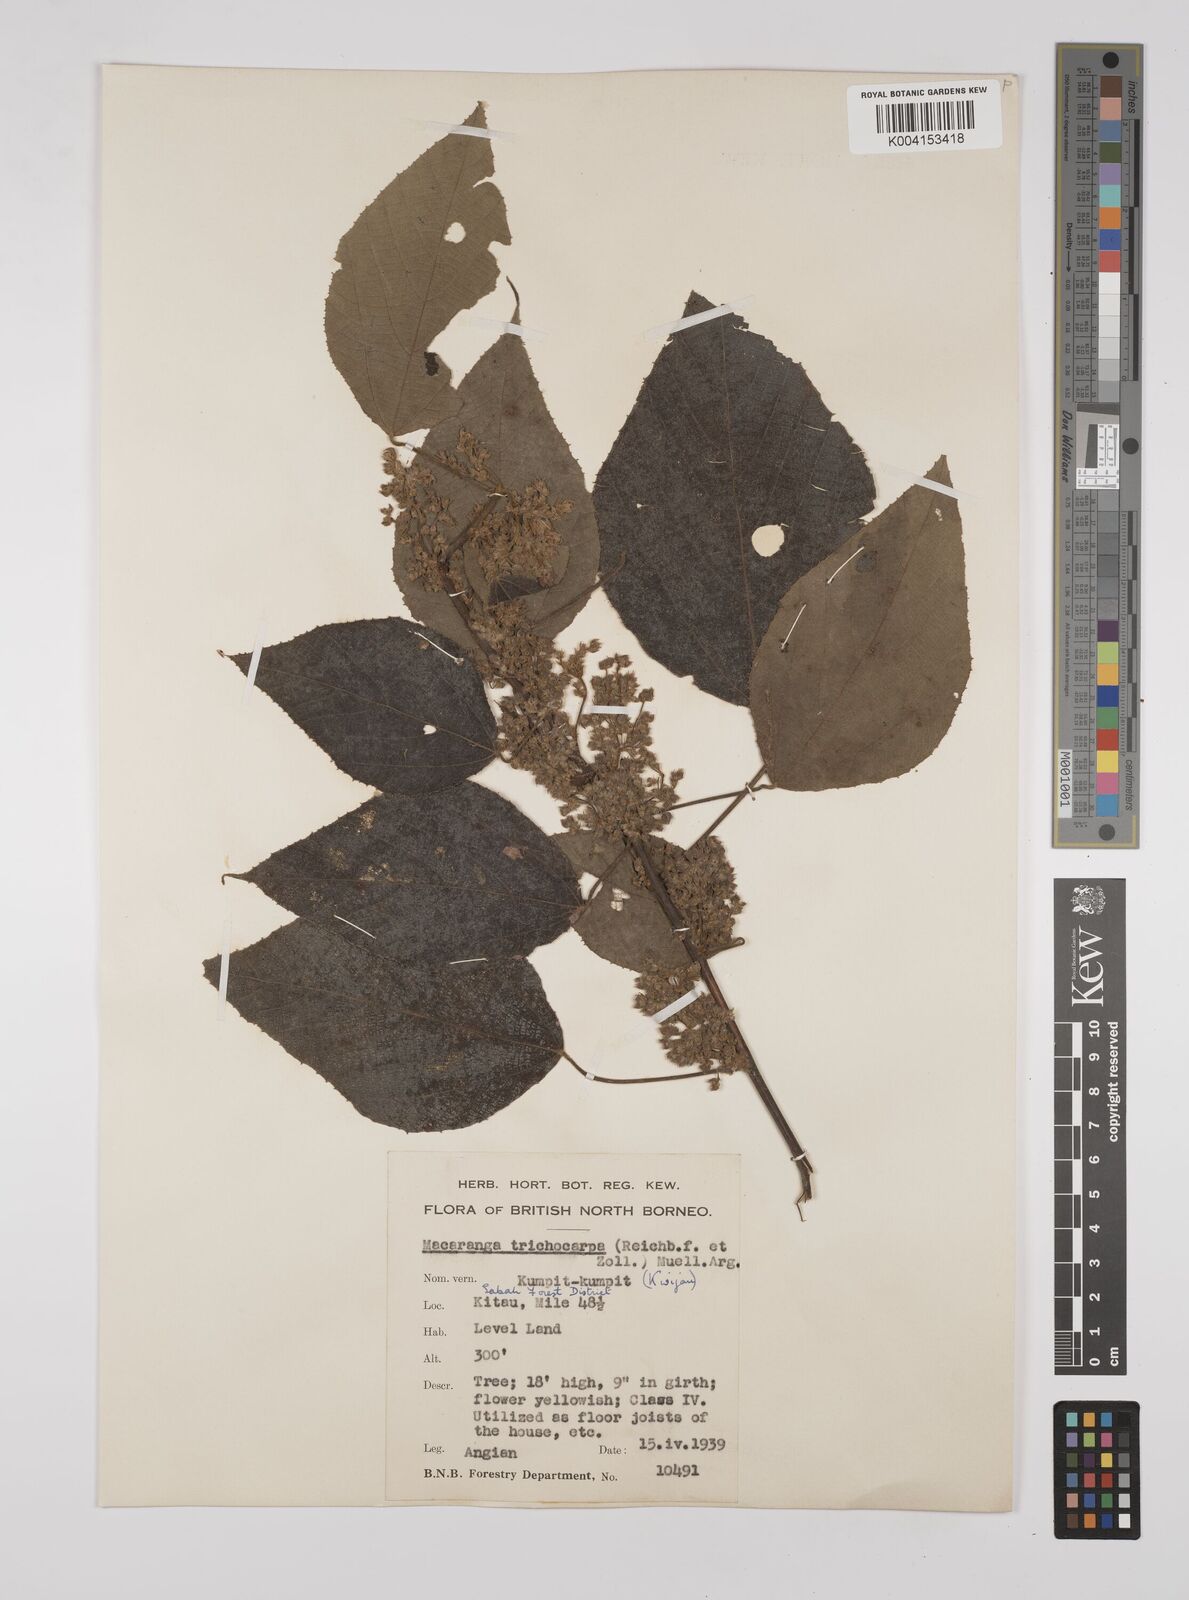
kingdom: Plantae
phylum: Tracheophyta
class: Magnoliopsida
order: Malpighiales
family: Euphorbiaceae
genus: Macaranga
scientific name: Macaranga trichocarpa
